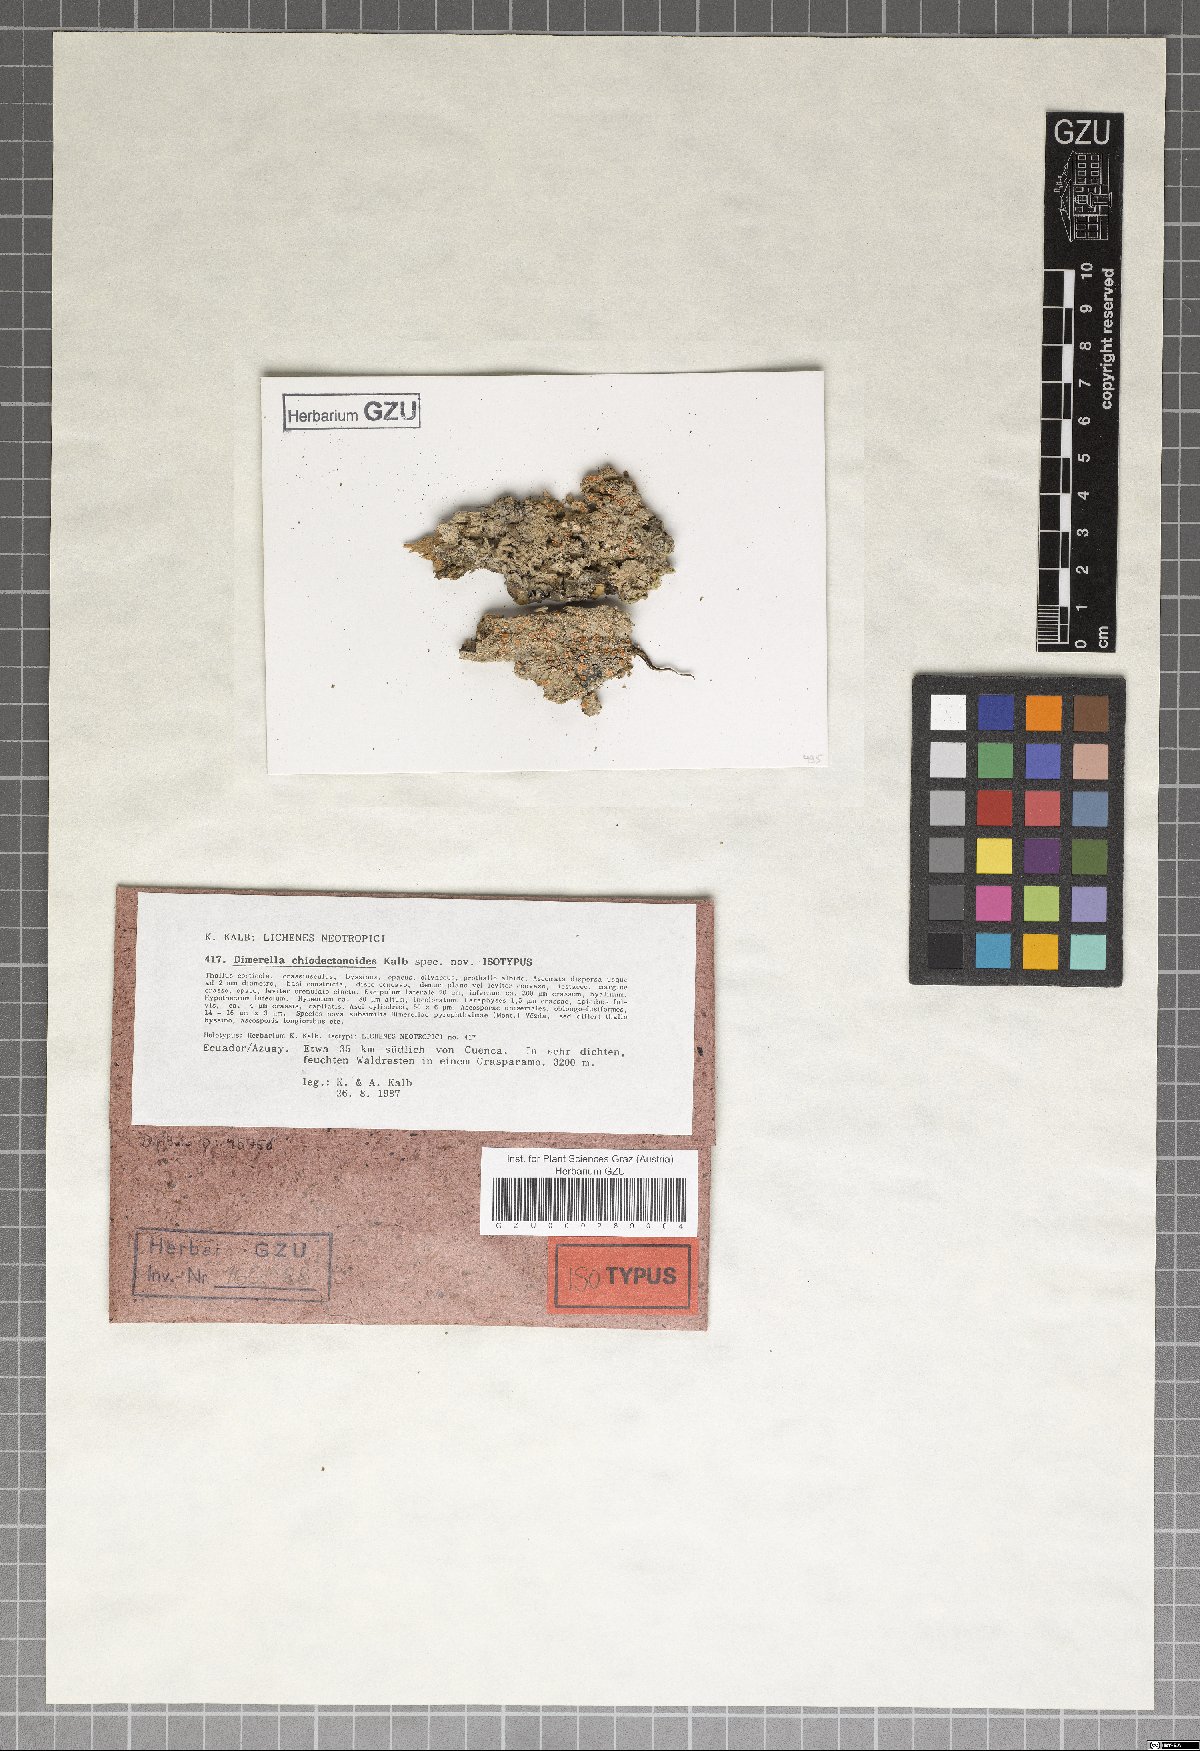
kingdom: Fungi
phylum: Ascomycota
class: Lecanoromycetes
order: Gyalectales
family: Gyalectaceae
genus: Dimerella
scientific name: Dimerella chiodectonoides
